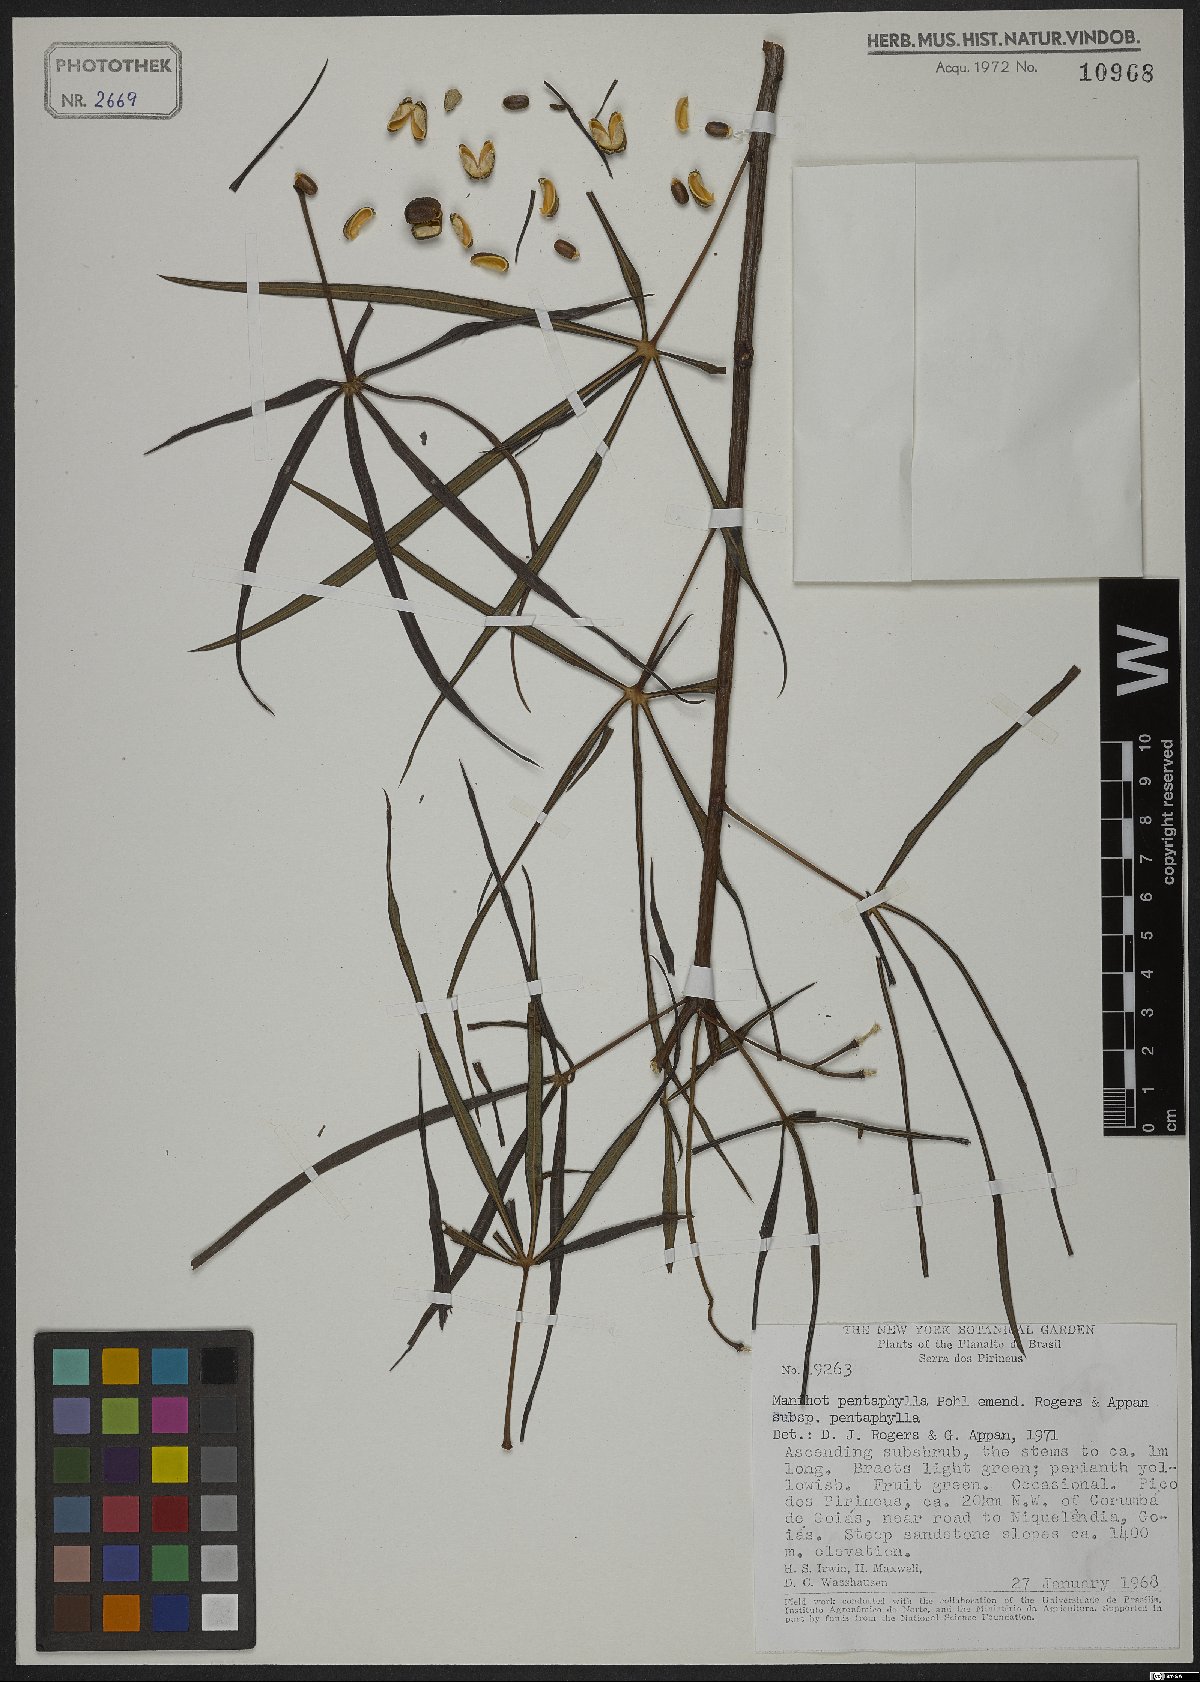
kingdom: Plantae
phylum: Tracheophyta
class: Magnoliopsida
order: Malpighiales
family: Euphorbiaceae
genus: Manihot
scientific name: Manihot pentaphylla
